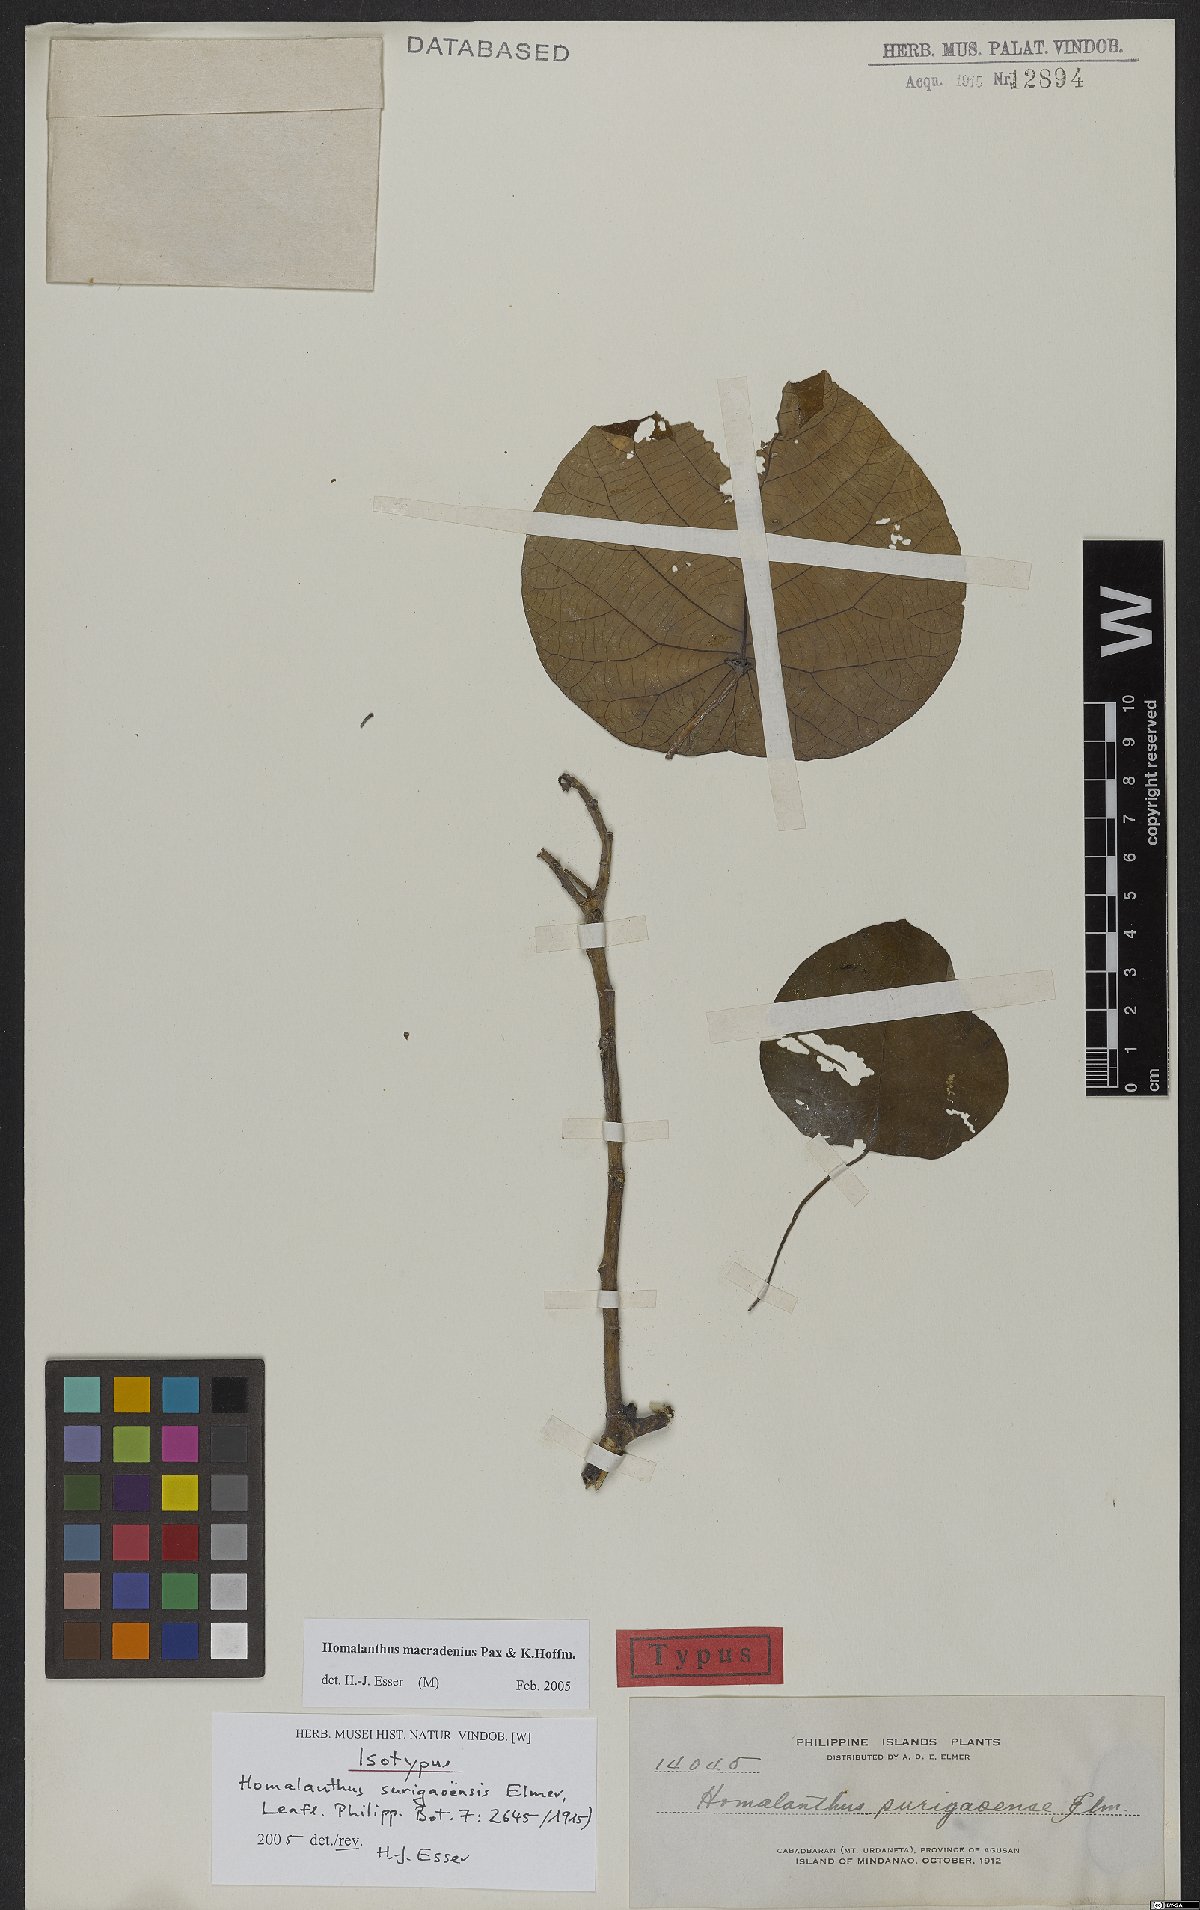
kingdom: Plantae
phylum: Tracheophyta
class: Magnoliopsida
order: Malpighiales
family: Euphorbiaceae
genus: Homalanthus
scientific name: Homalanthus macradenius
